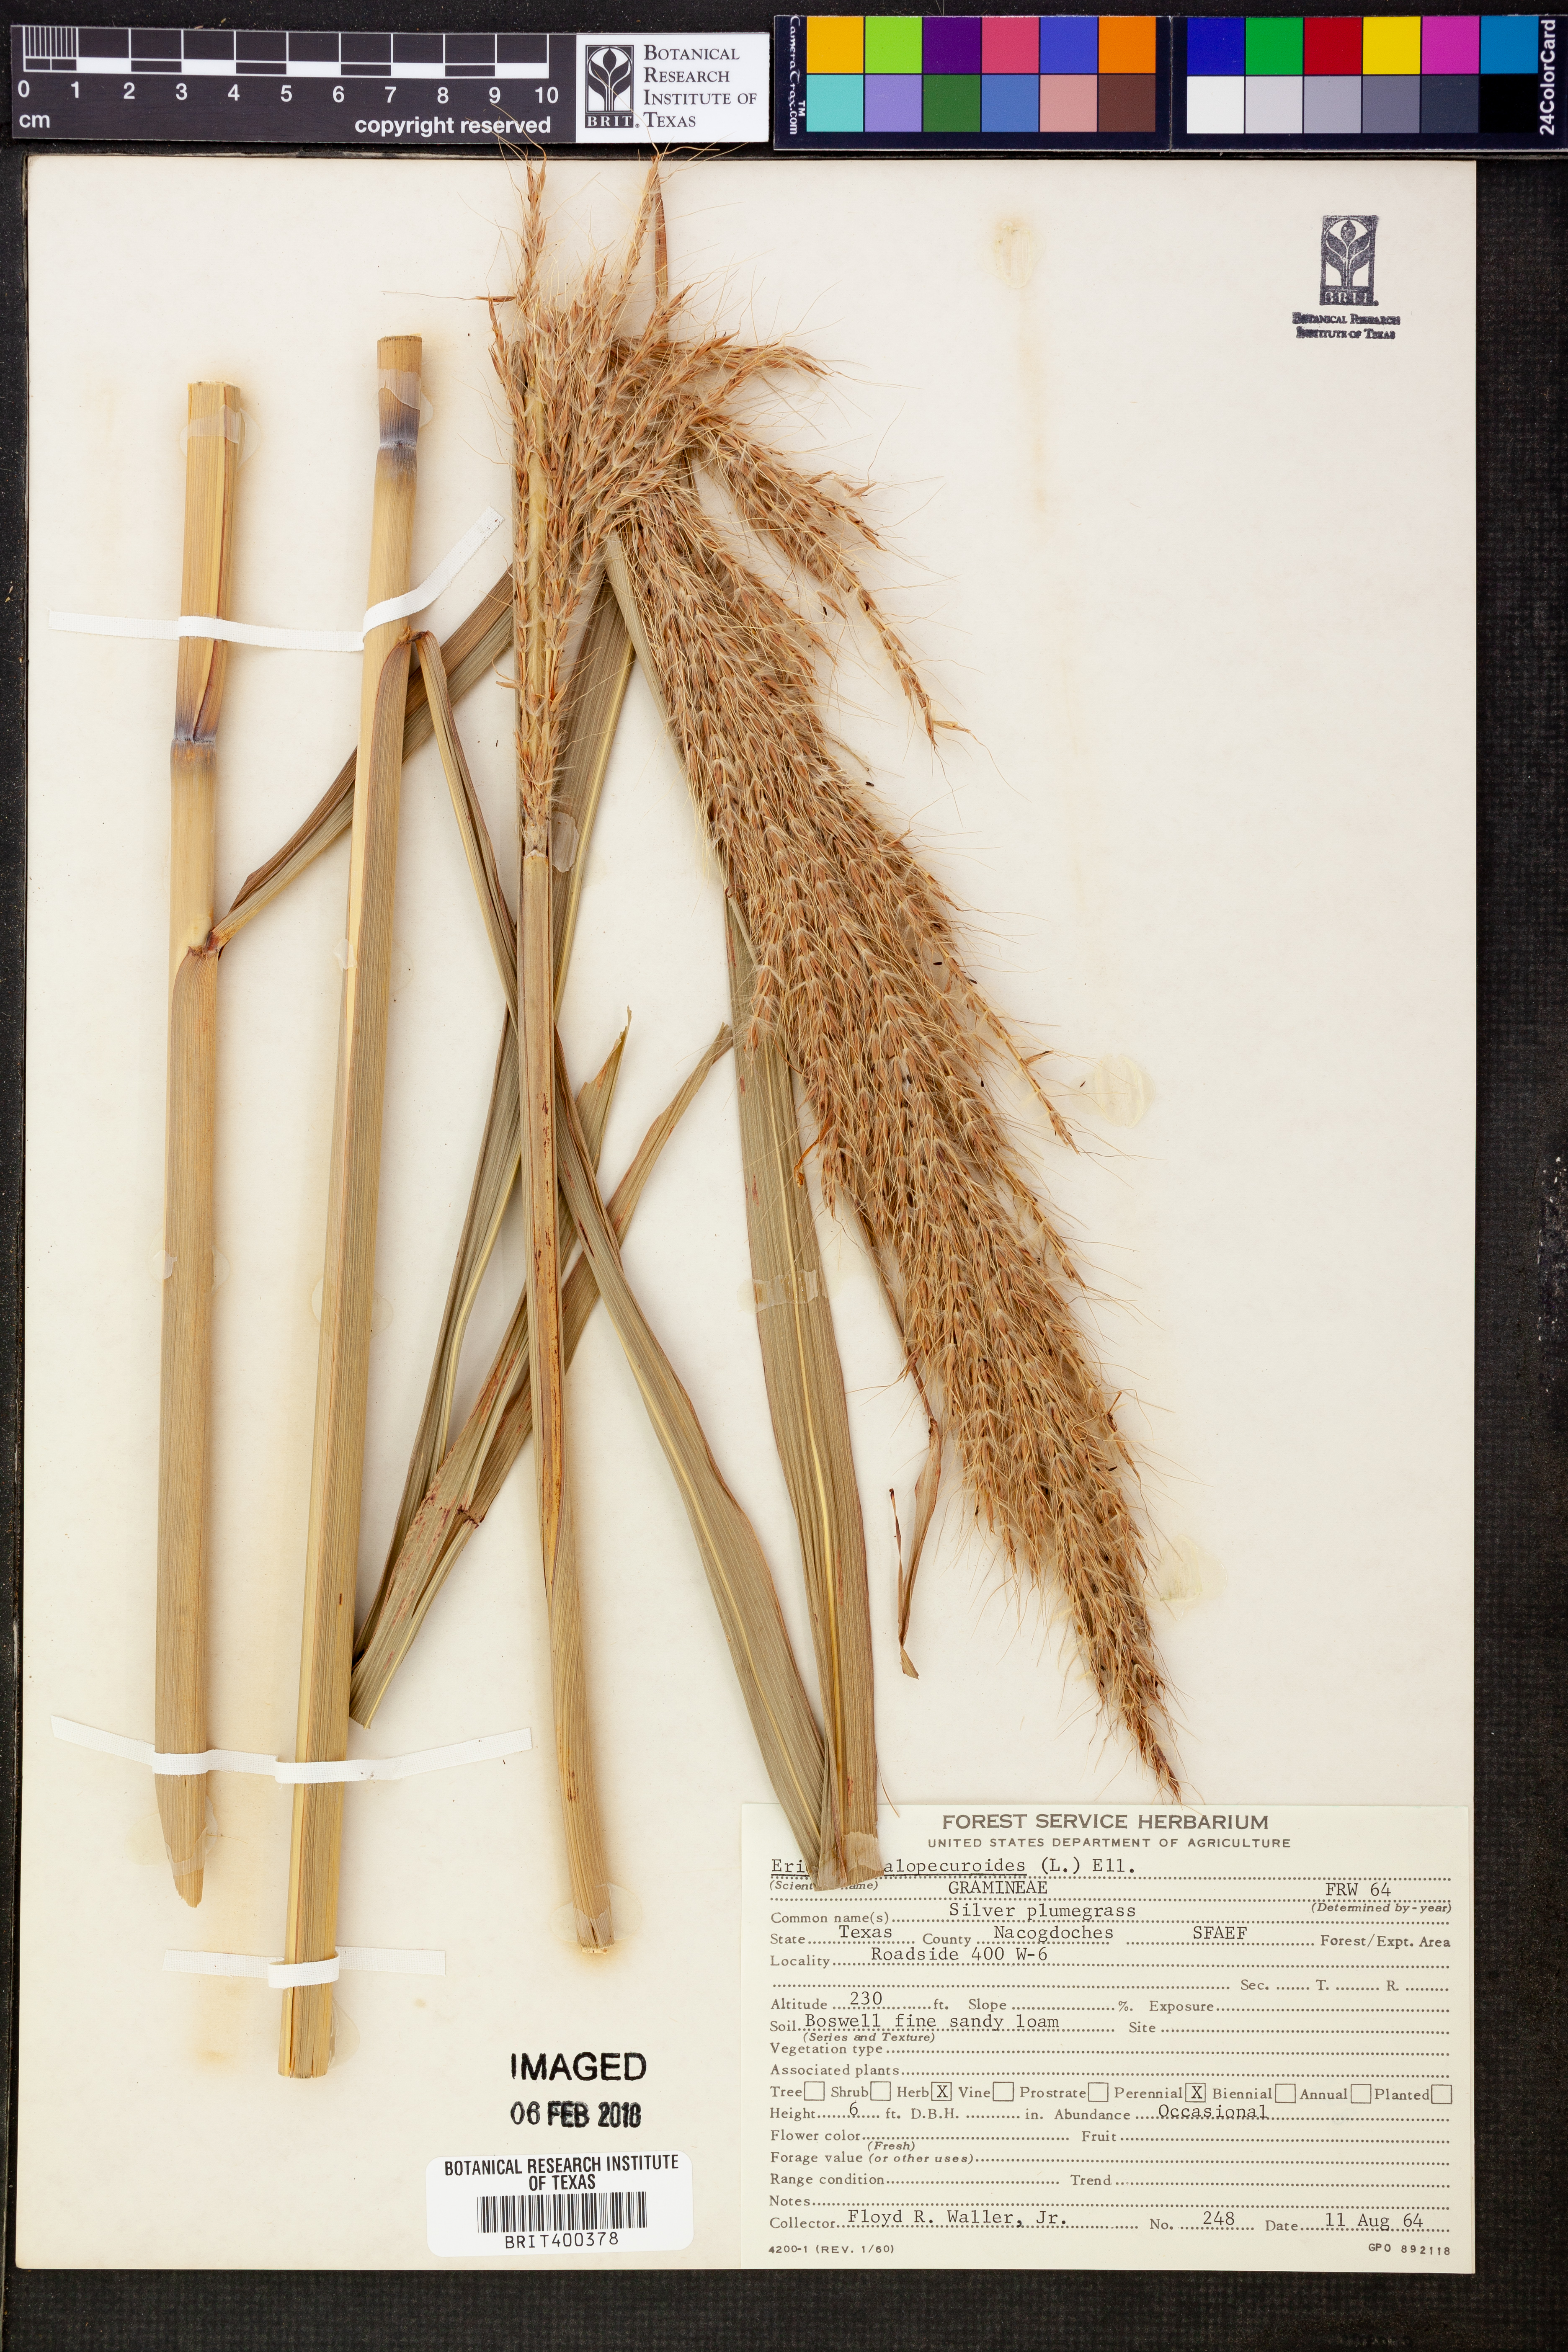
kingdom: Plantae
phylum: Tracheophyta
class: Liliopsida
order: Poales
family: Poaceae
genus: Erianthus
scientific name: Erianthus alopecuroides
